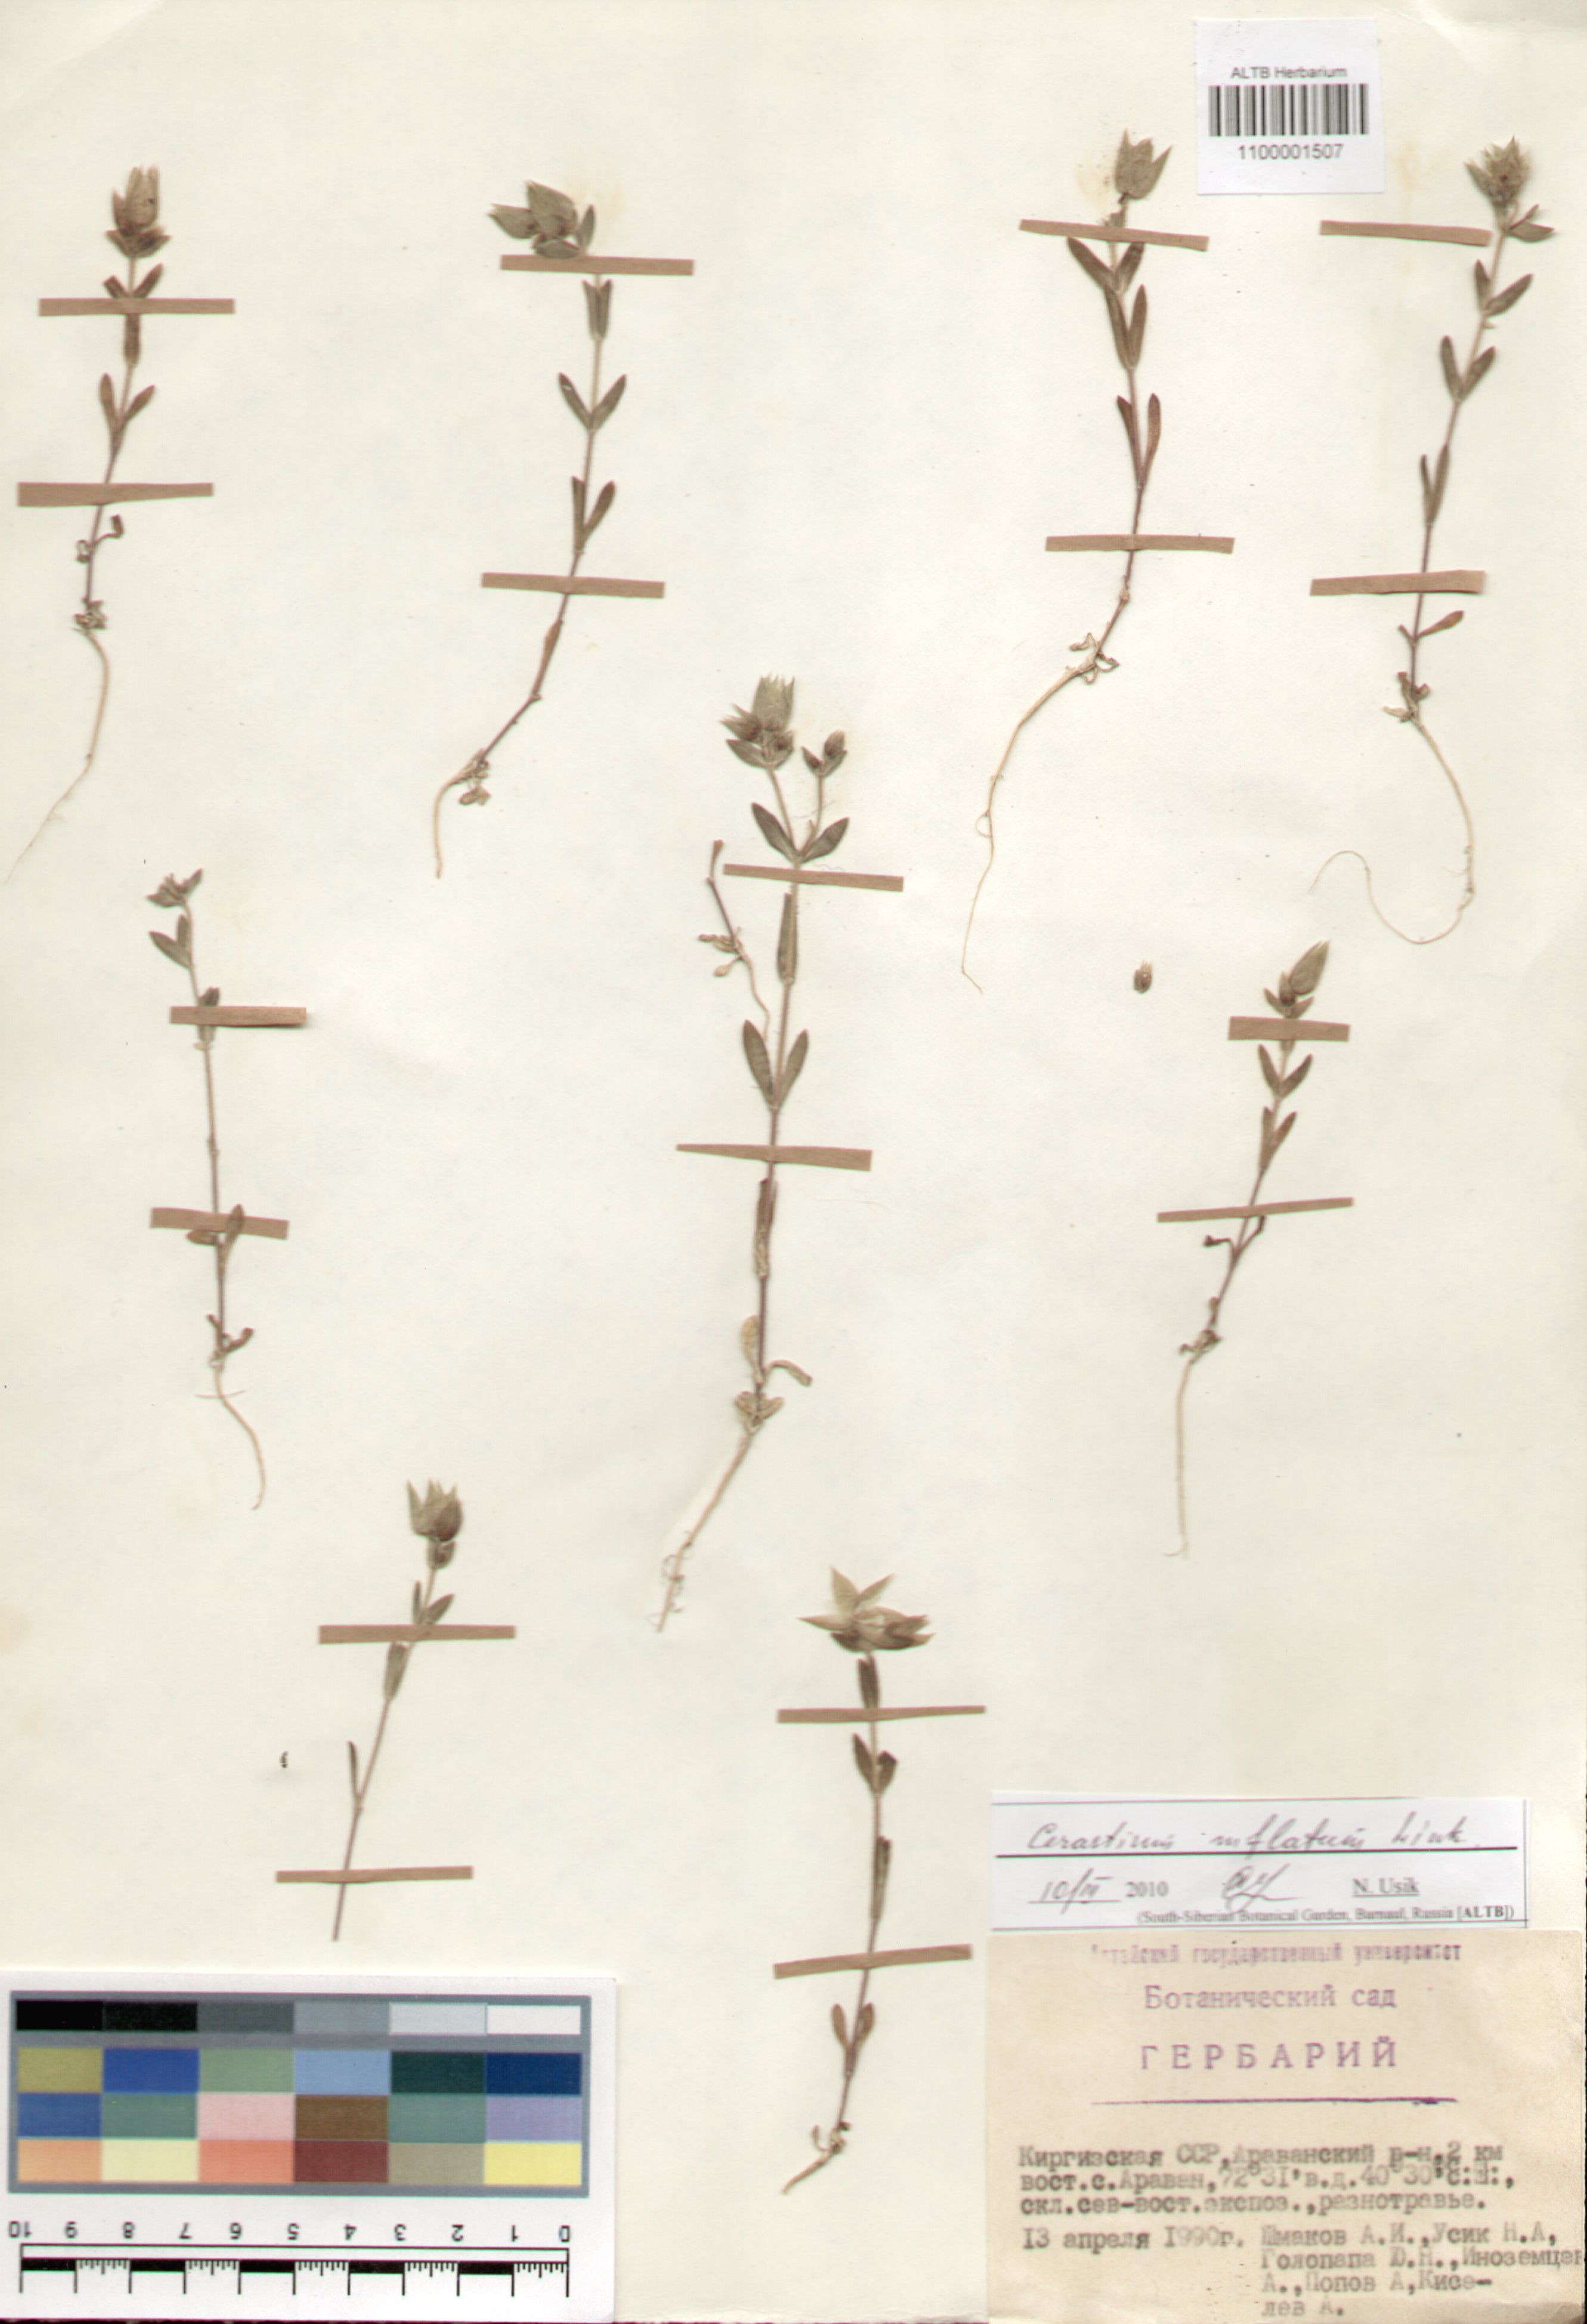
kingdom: Plantae
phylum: Tracheophyta
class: Magnoliopsida
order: Caryophyllales
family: Caryophyllaceae
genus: Cerastium
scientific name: Cerastium inflatum
